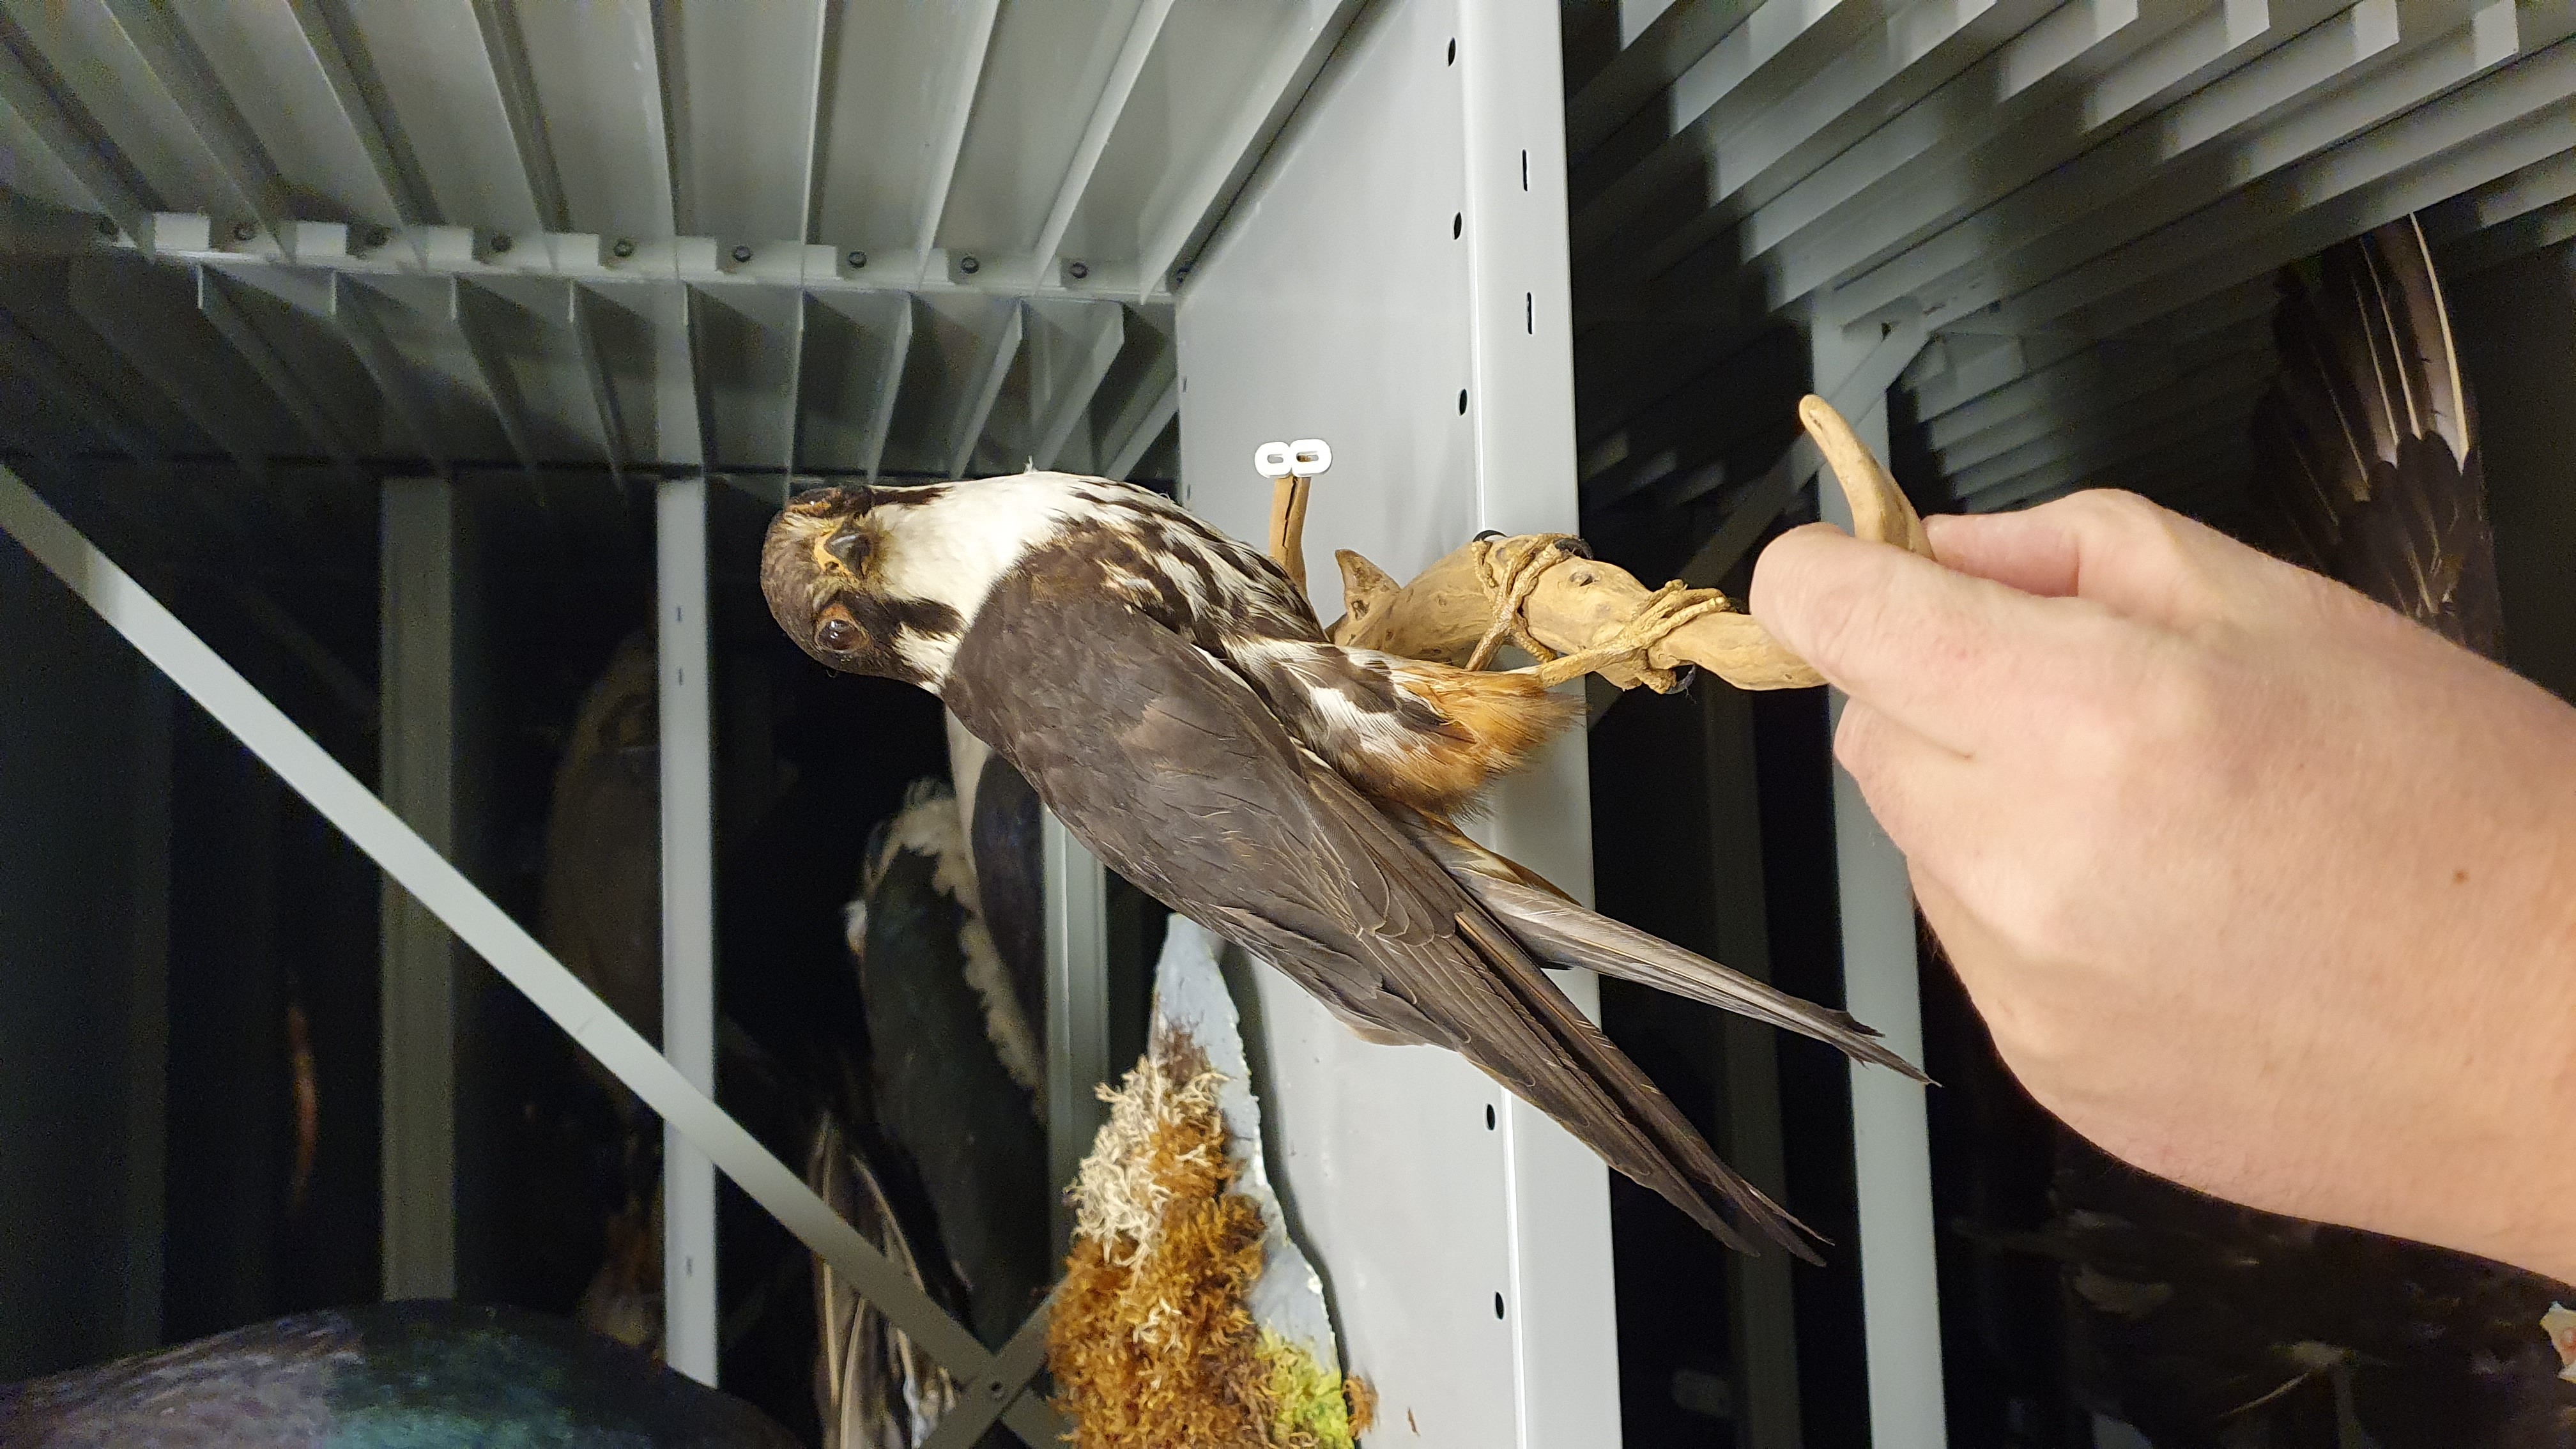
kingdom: Animalia
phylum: Chordata
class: Aves
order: Falconiformes
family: Falconidae
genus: Falco
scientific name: Falco subbuteo
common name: Eurasian hobby
